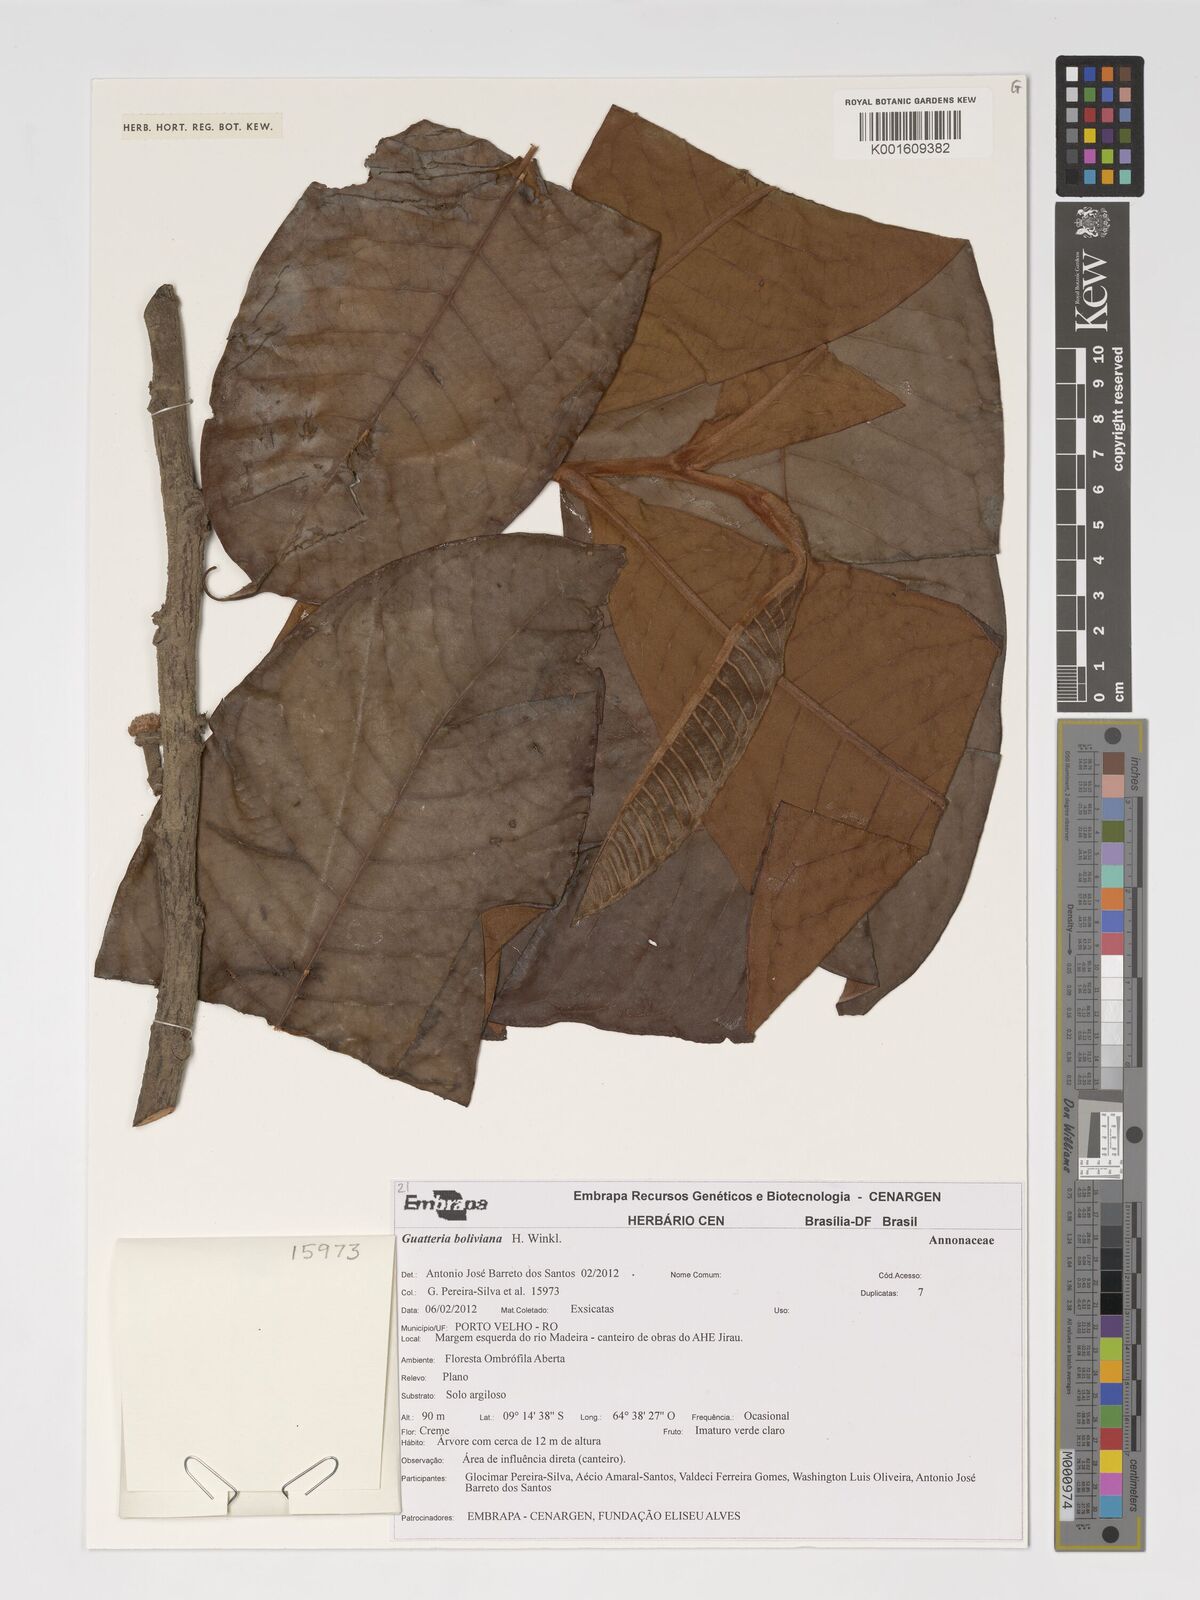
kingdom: Plantae
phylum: Tracheophyta
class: Magnoliopsida
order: Magnoliales
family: Annonaceae
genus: Guatteria
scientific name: Guatteria blepharophylla
